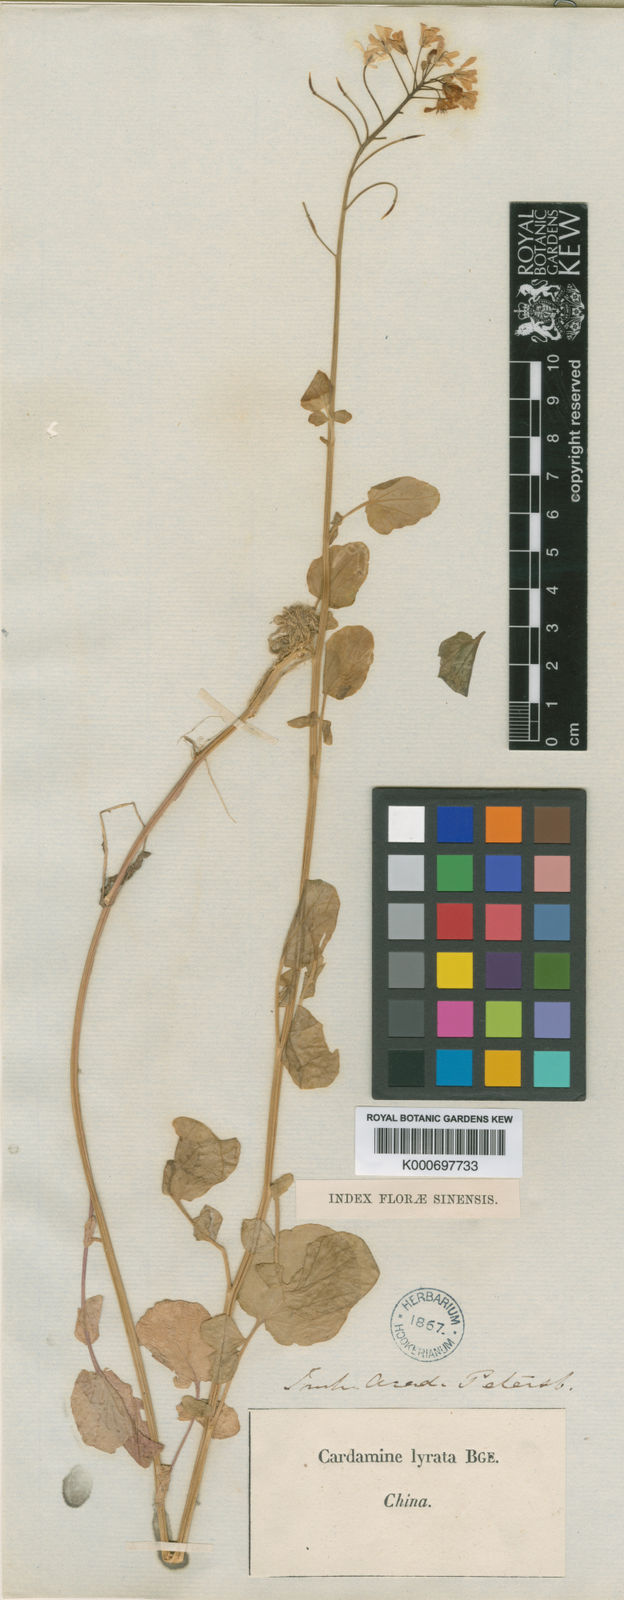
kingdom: Plantae
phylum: Tracheophyta
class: Magnoliopsida
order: Brassicales
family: Brassicaceae
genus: Cardamine
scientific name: Cardamine lyrata
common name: Chinese-ivy
